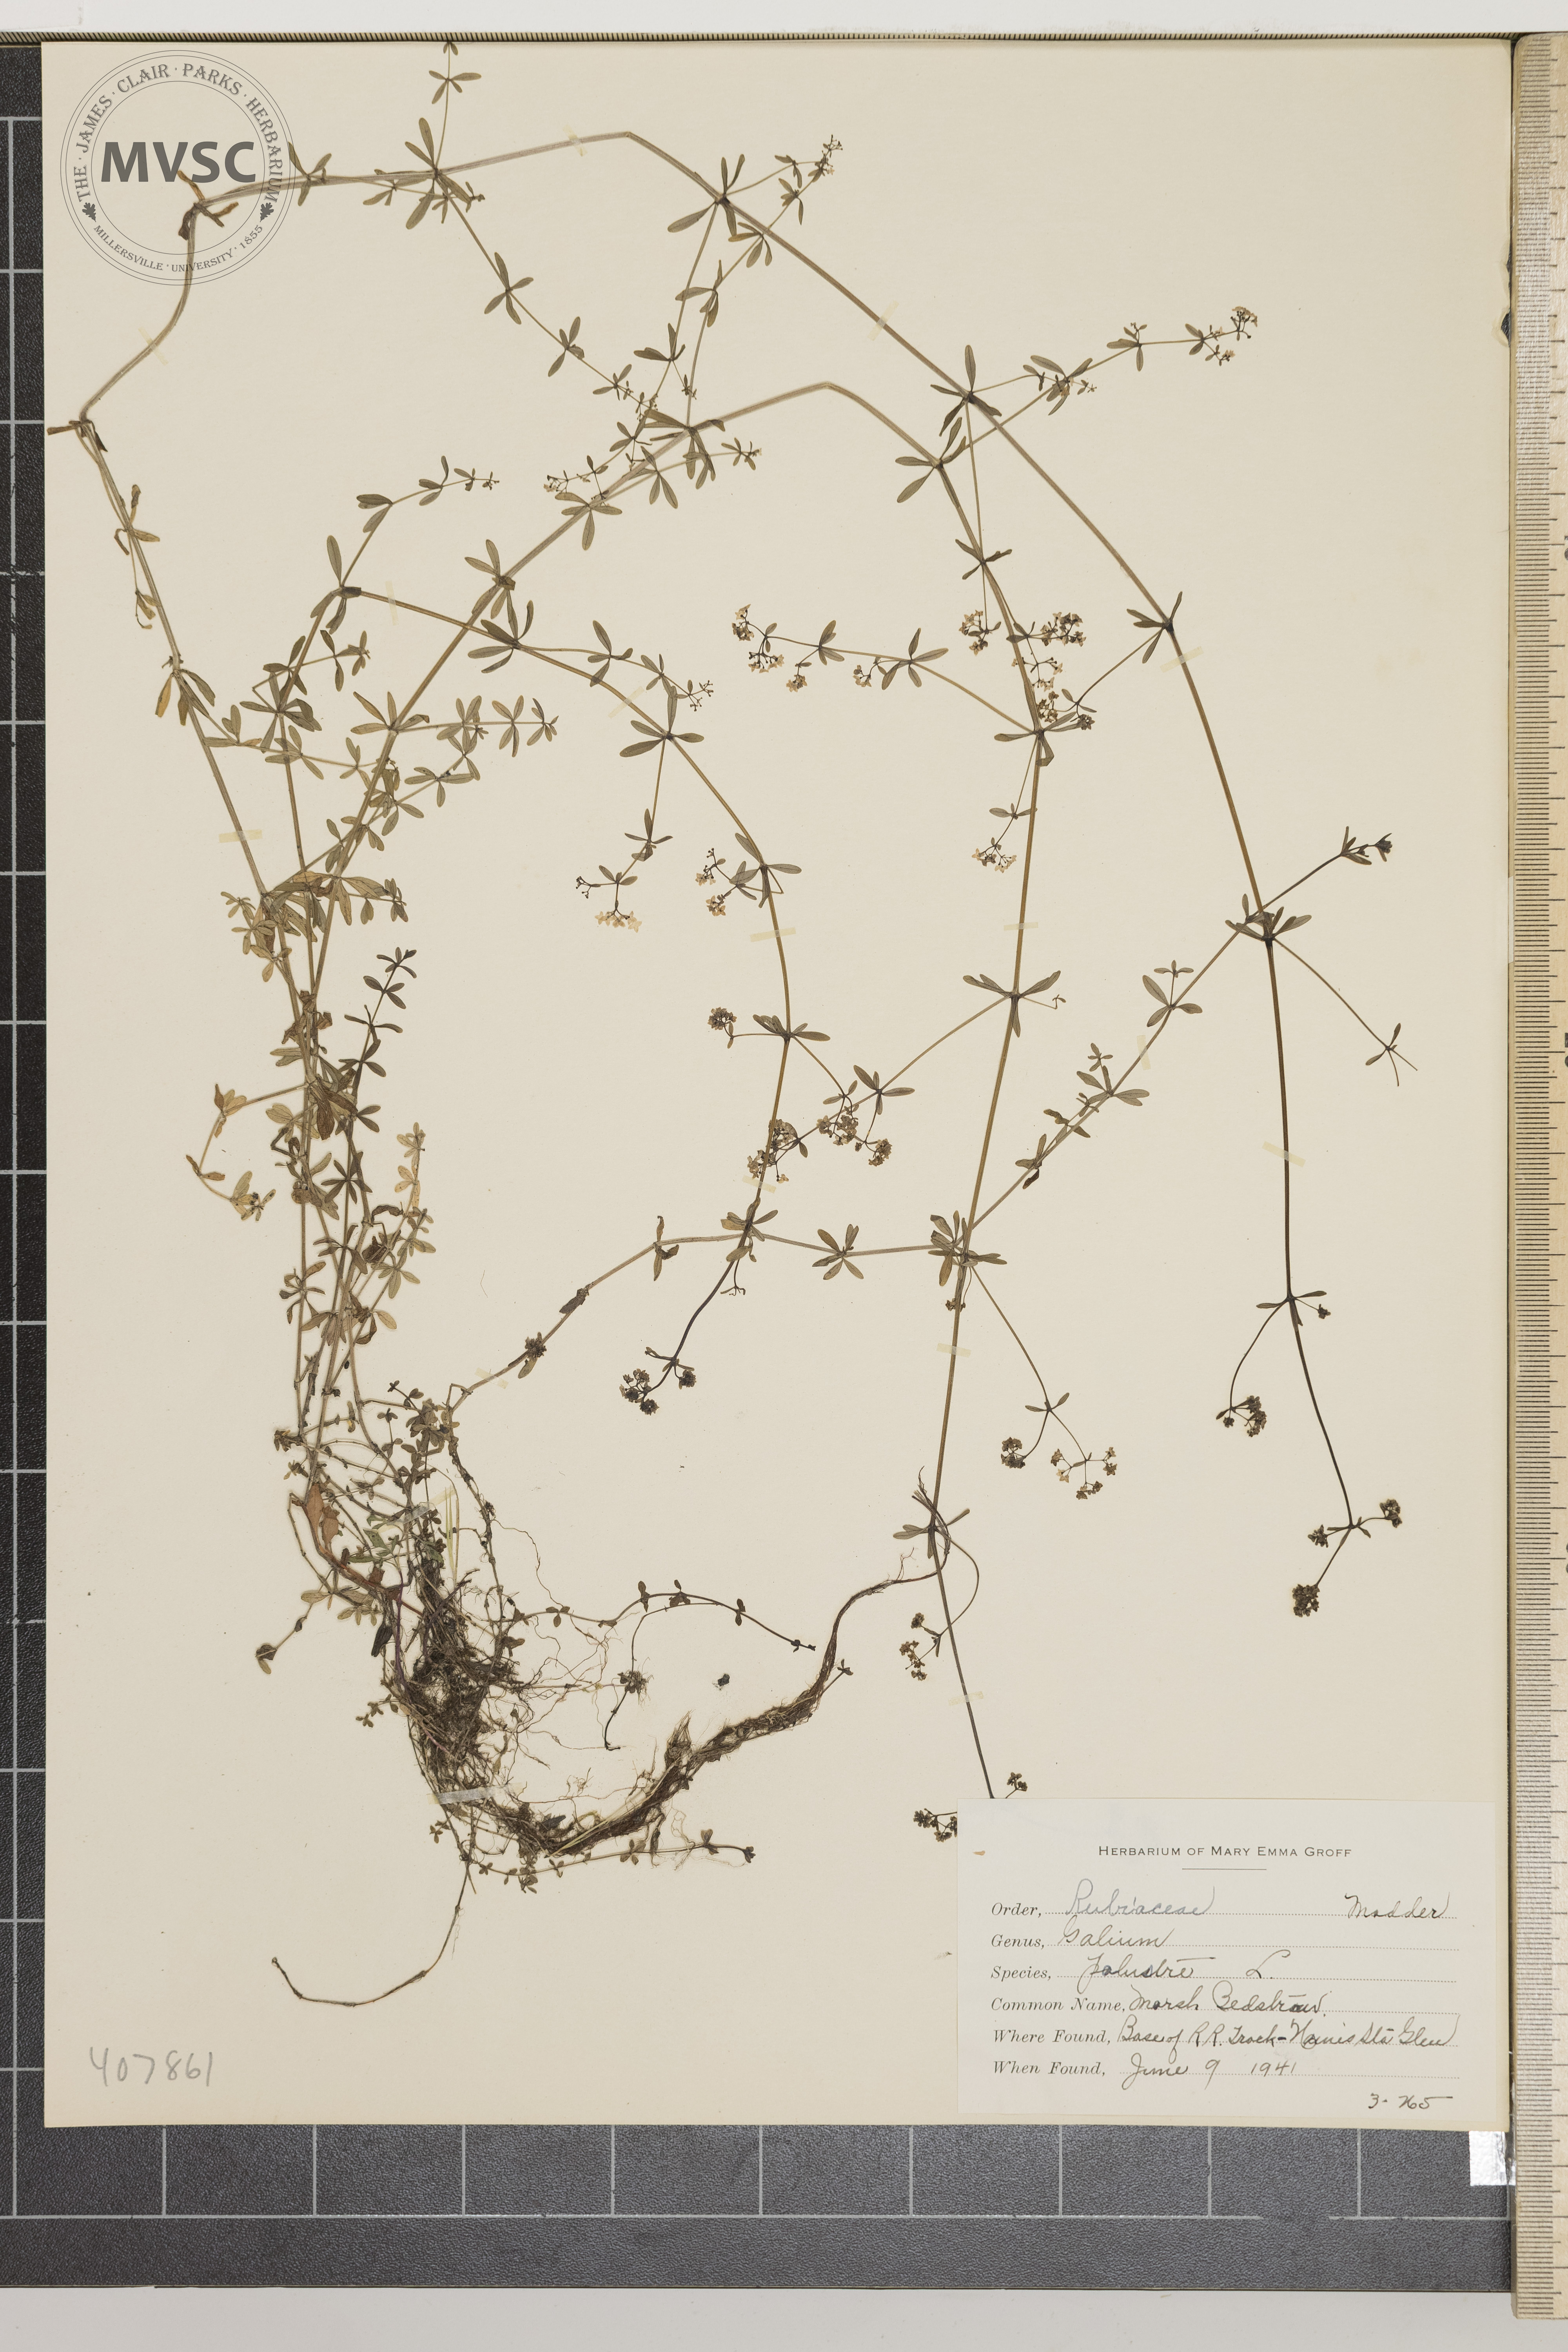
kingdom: Plantae
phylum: Tracheophyta
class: Magnoliopsida
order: Gentianales
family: Rubiaceae
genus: Galium
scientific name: Galium palustre
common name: Marsh Bedstraw
